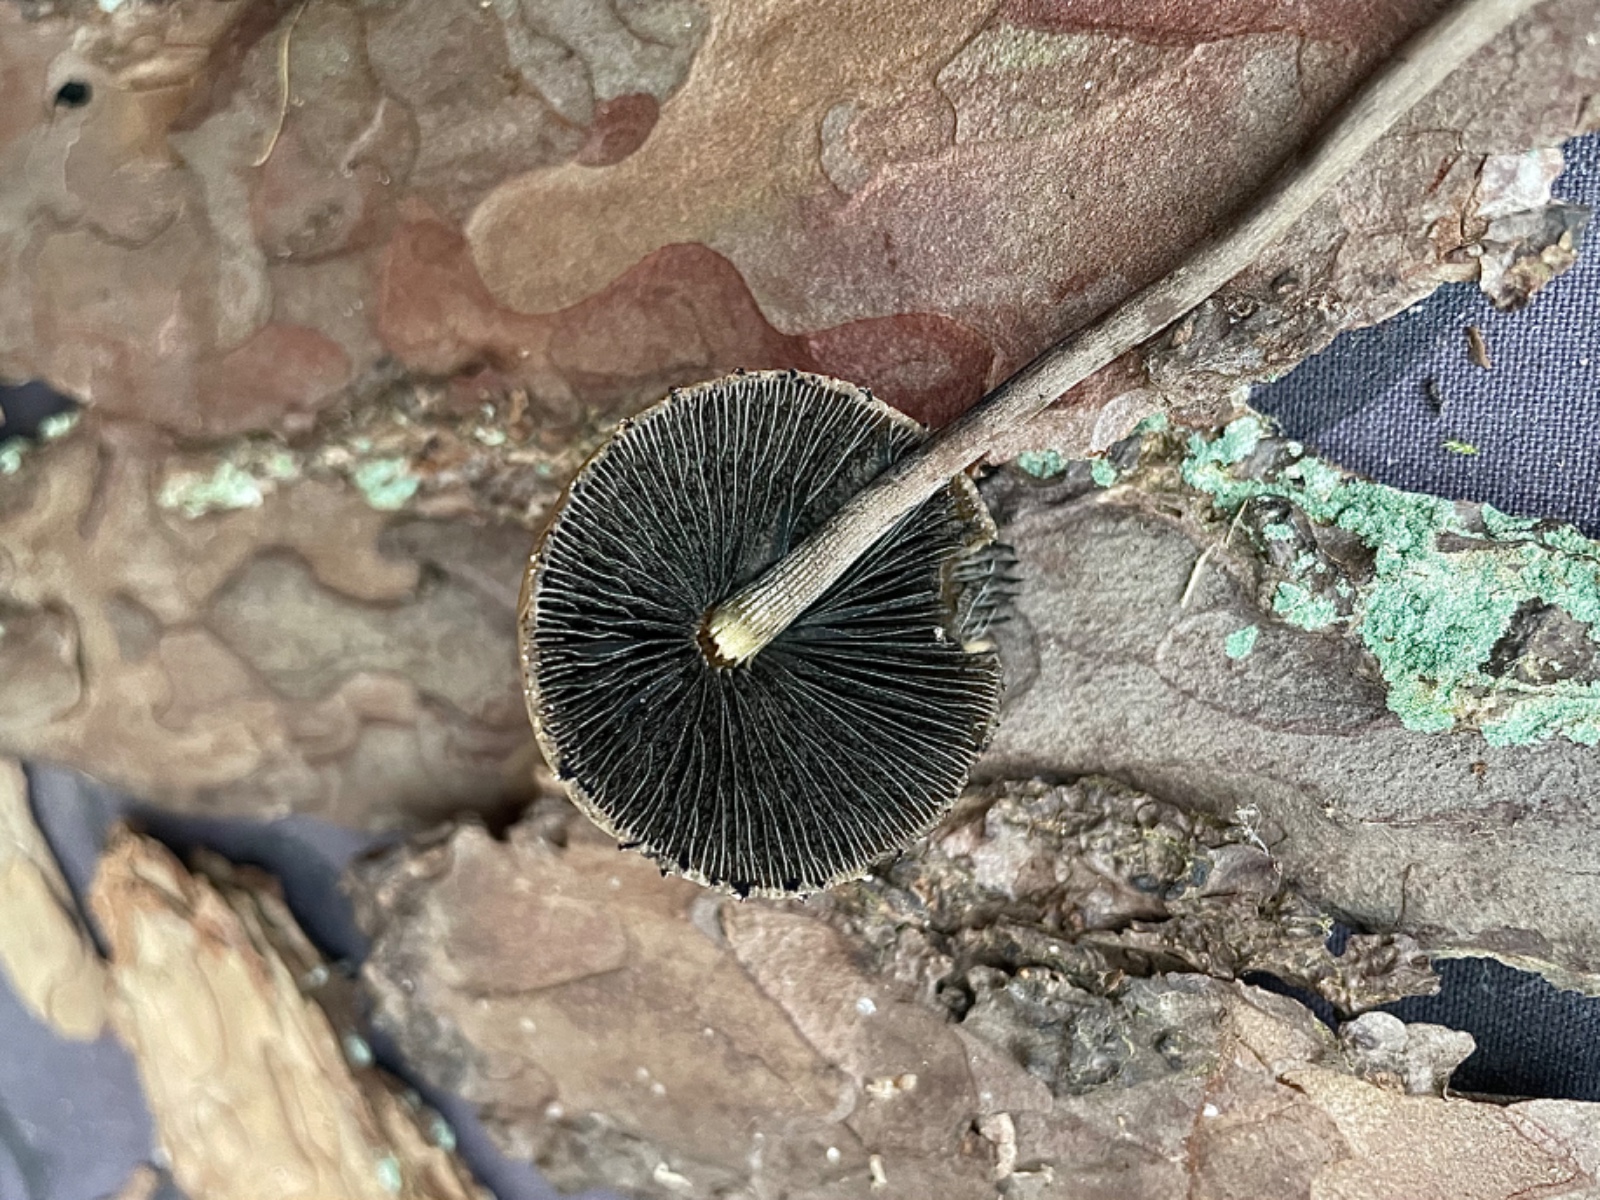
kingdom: Fungi
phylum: Basidiomycota
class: Agaricomycetes
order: Agaricales
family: Bolbitiaceae
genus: Panaeolus
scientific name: Panaeolus papilionaceus
